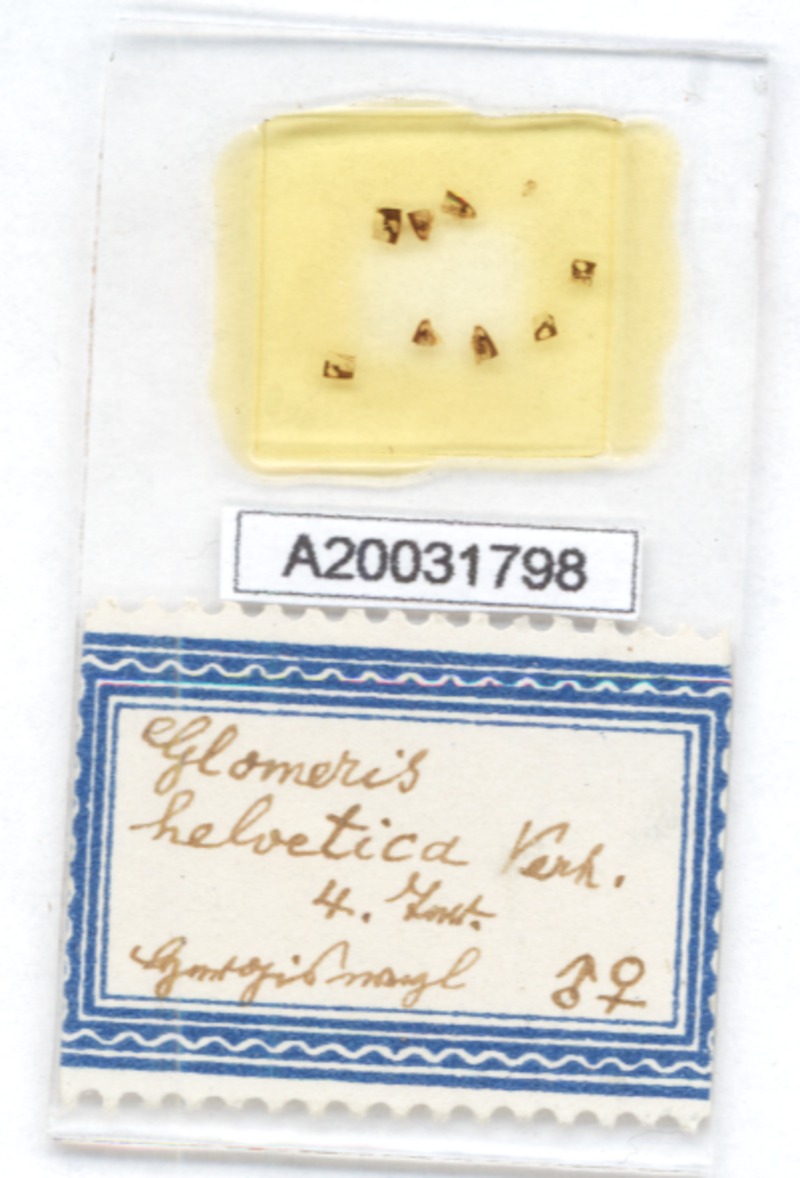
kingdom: Animalia
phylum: Arthropoda
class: Diplopoda
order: Glomerida
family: Glomeridae
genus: Glomeris
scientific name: Glomeris helvetica
